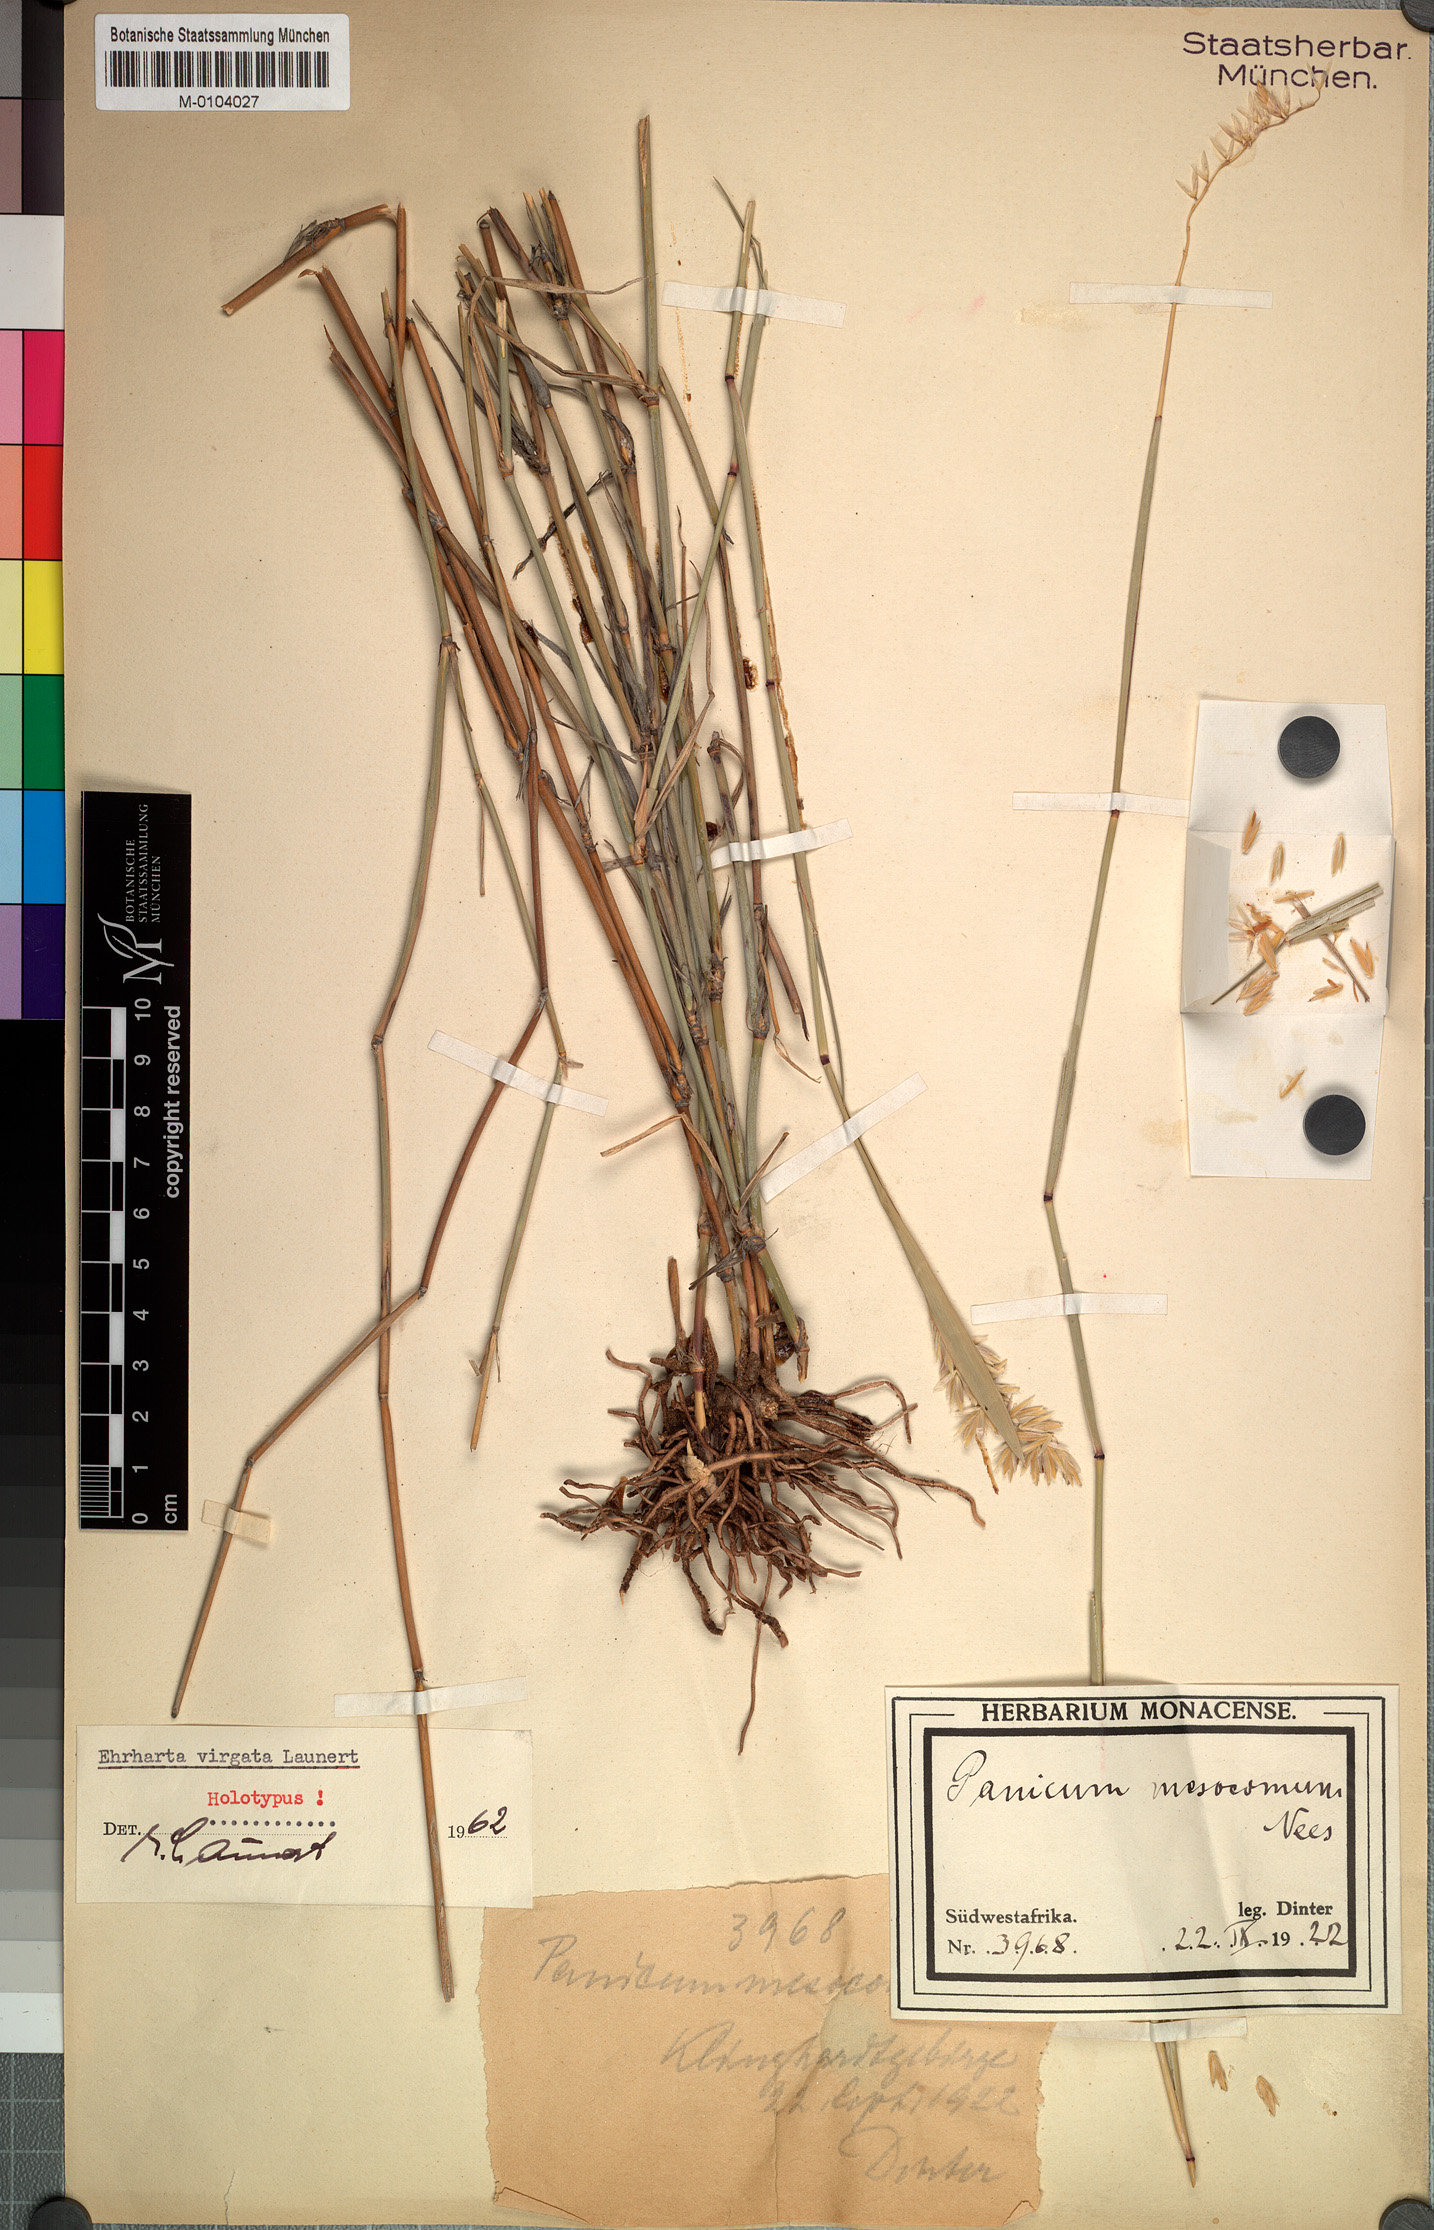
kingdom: Plantae
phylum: Tracheophyta
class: Liliopsida
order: Poales
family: Poaceae
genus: Ehrharta
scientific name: Ehrharta thunbergii
